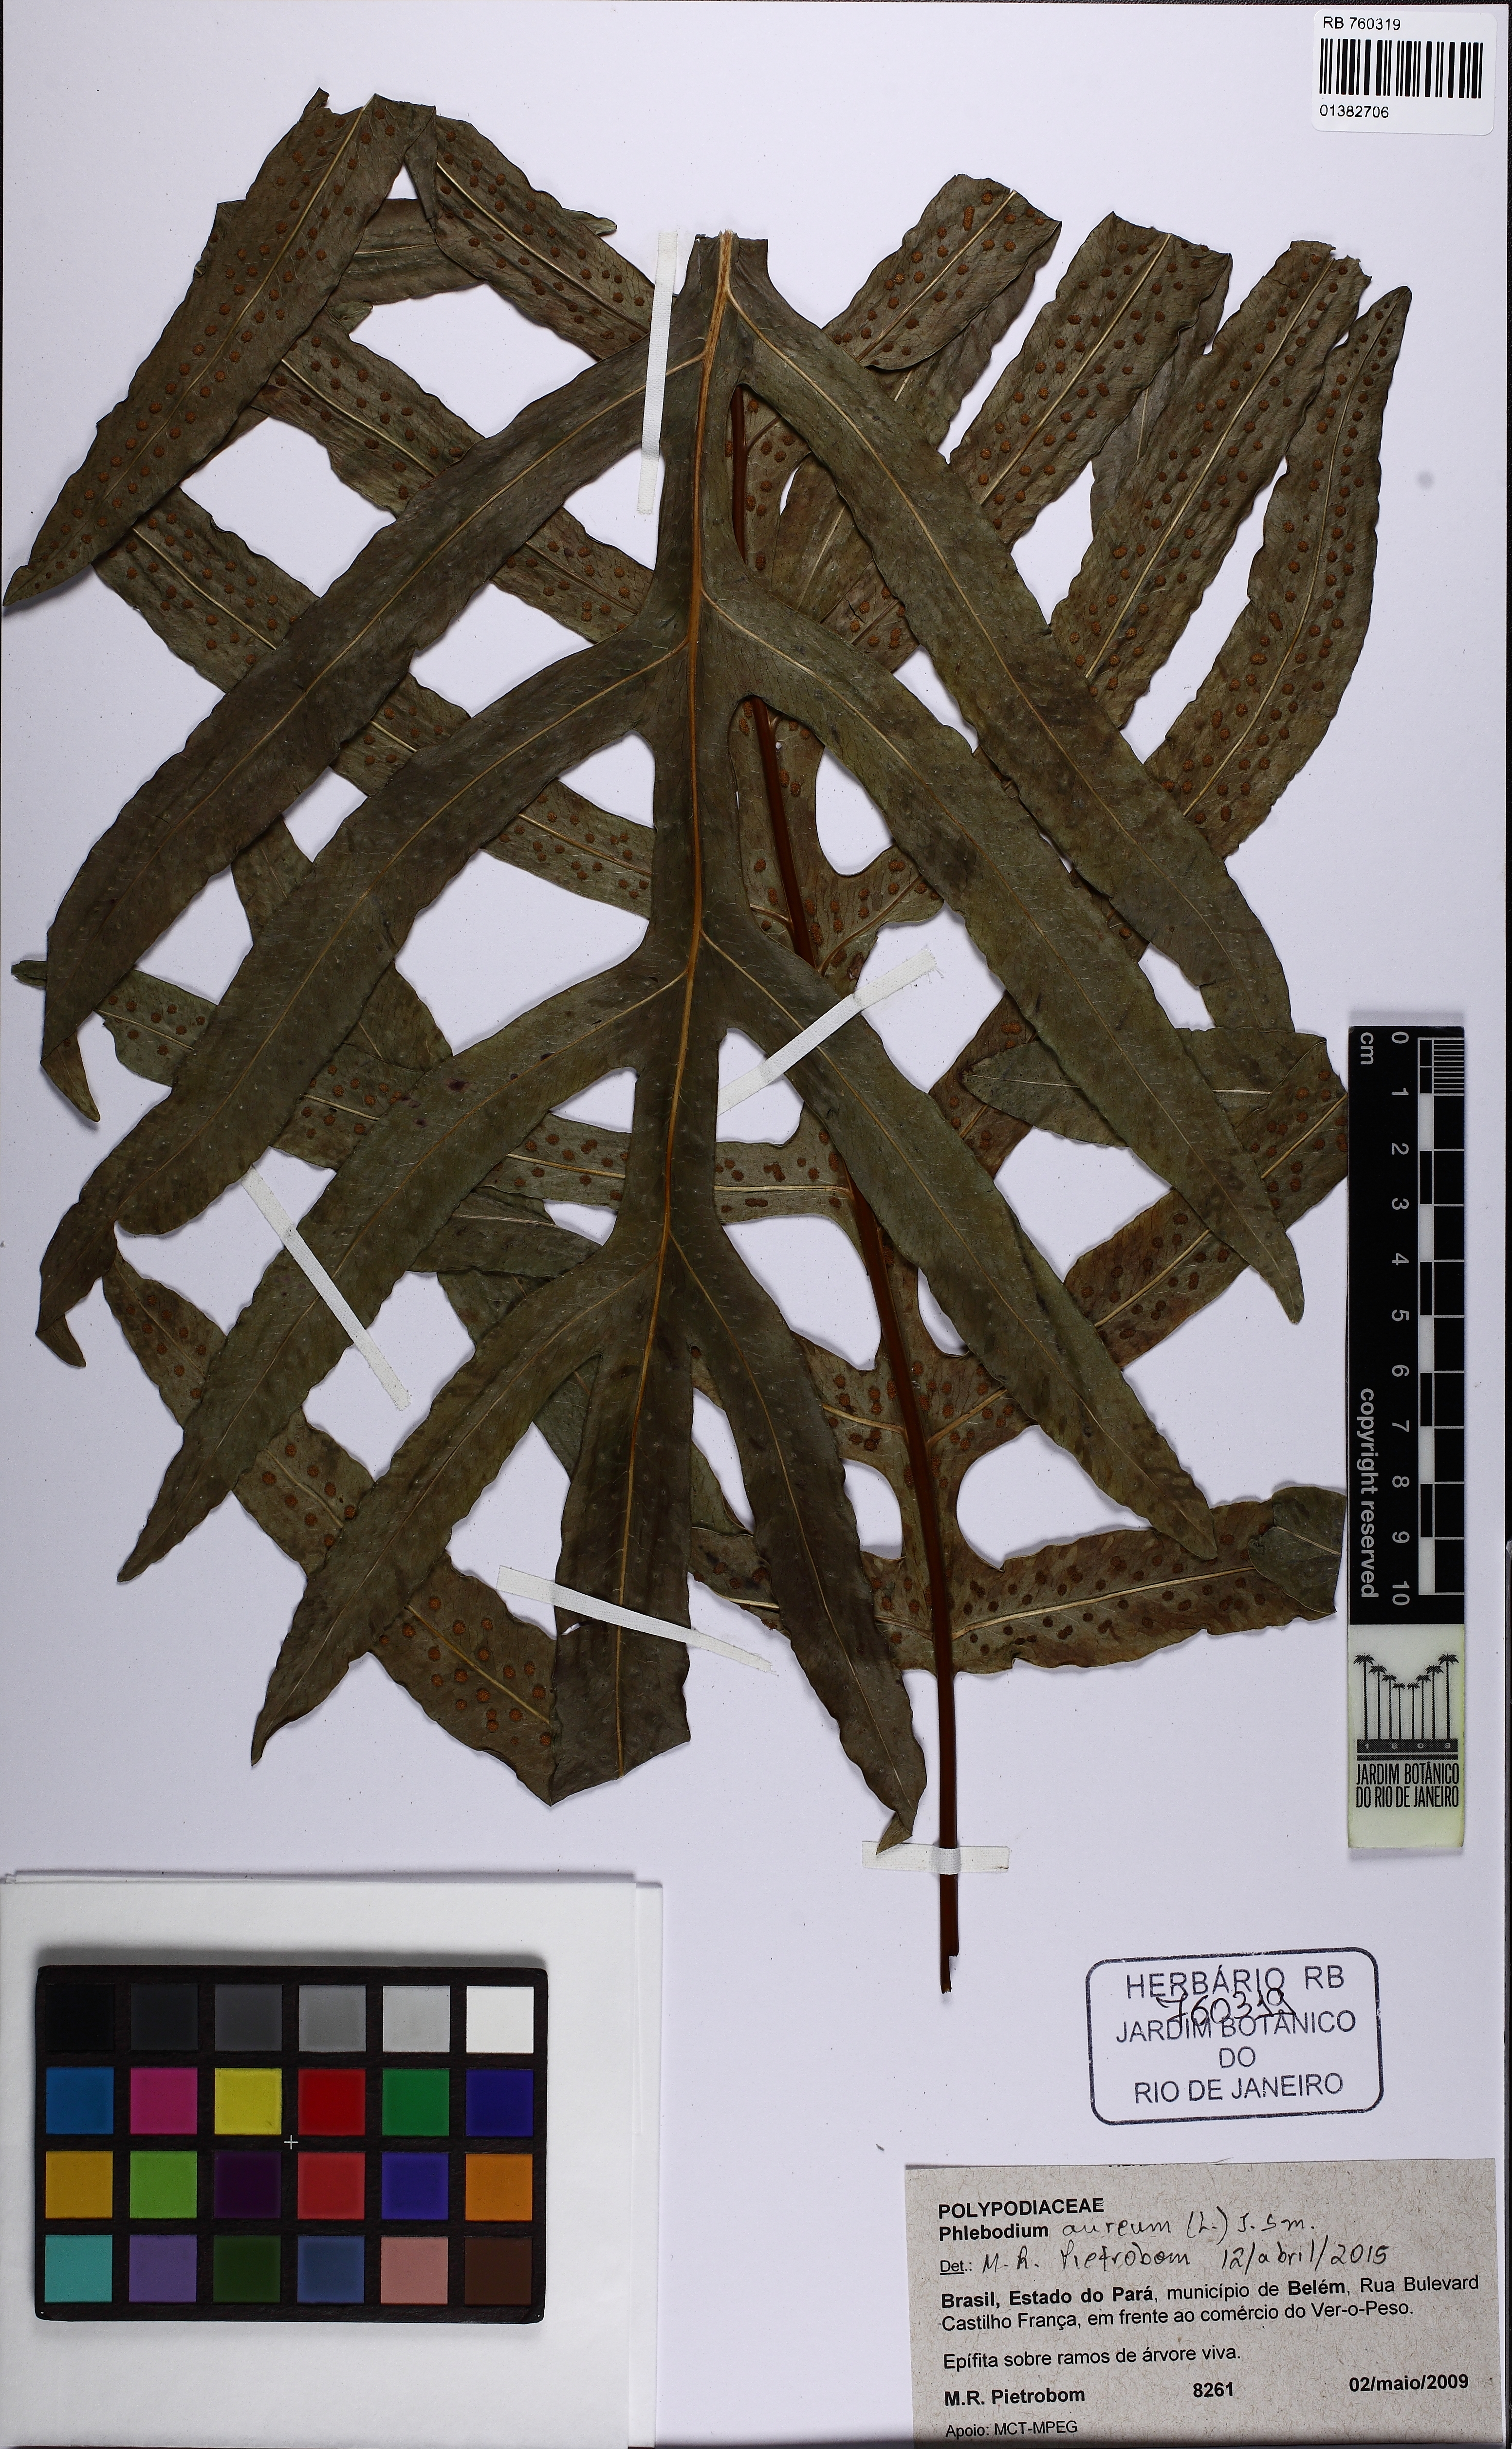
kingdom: Plantae
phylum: Tracheophyta
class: Polypodiopsida
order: Polypodiales
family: Polypodiaceae
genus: Phlebodium
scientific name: Phlebodium aureum
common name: Gold-foot fern
